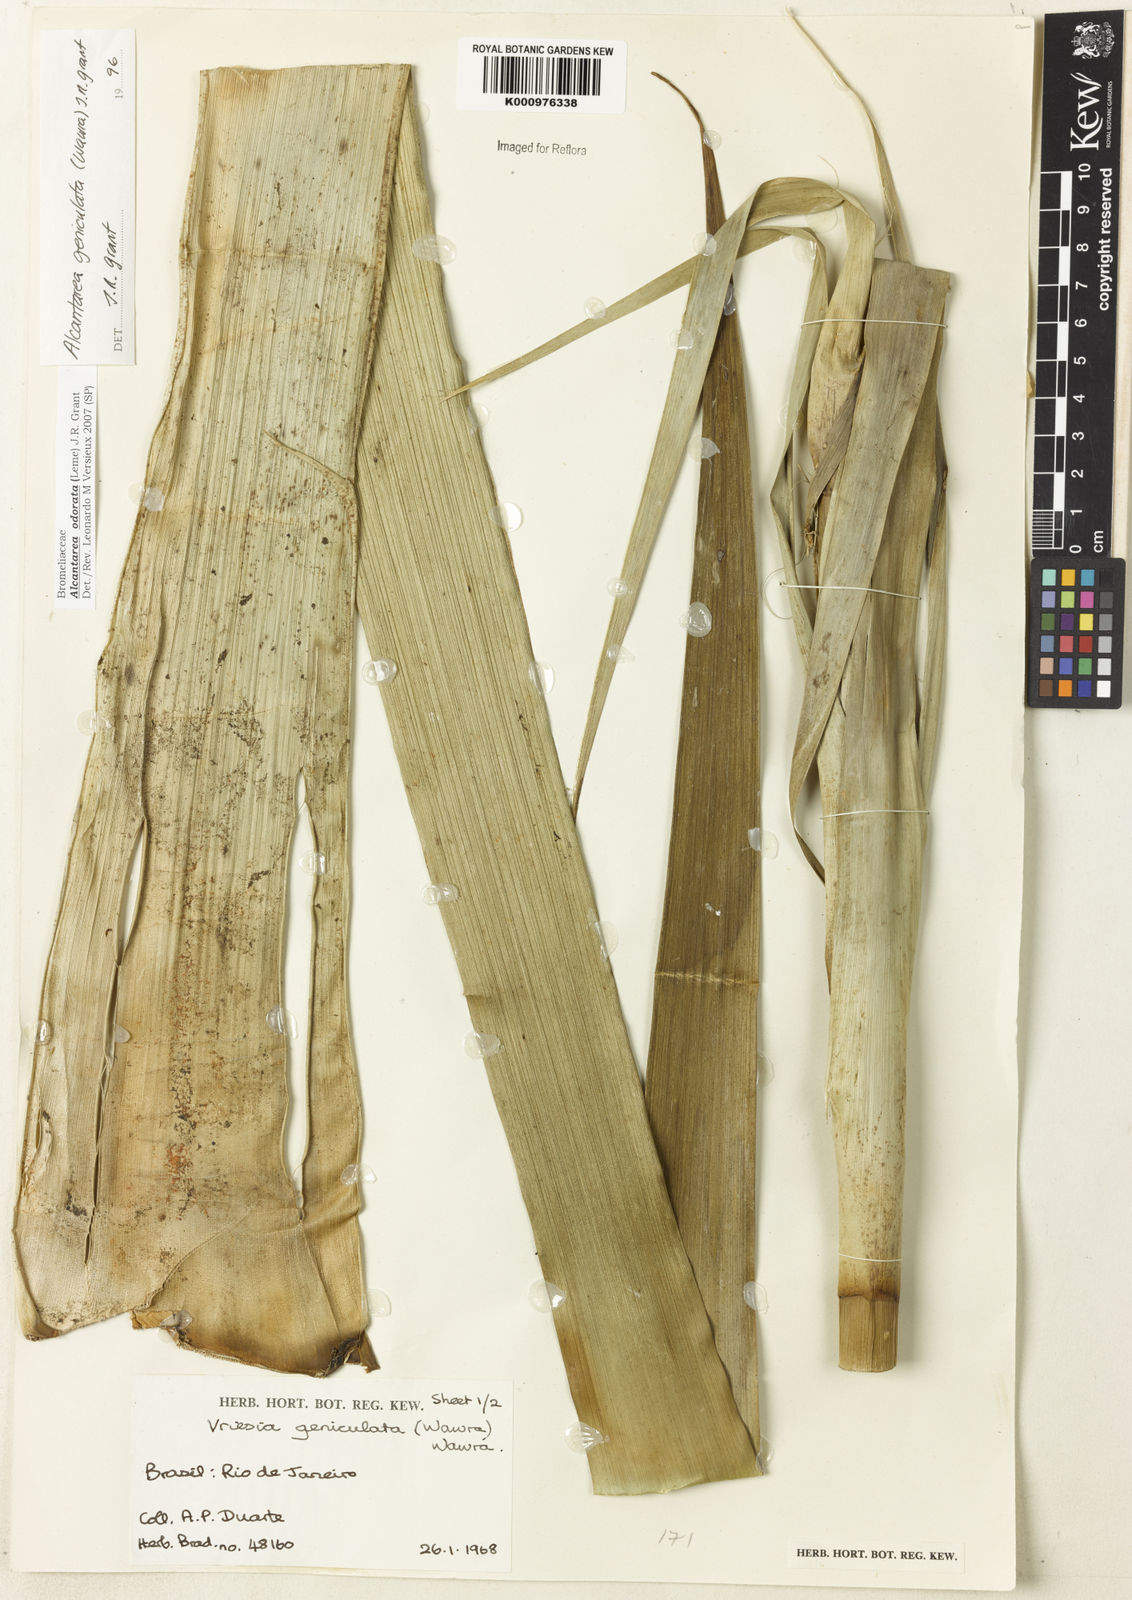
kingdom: Plantae
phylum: Tracheophyta
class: Liliopsida
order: Poales
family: Bromeliaceae
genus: Alcantarea
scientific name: Alcantarea geniculata
